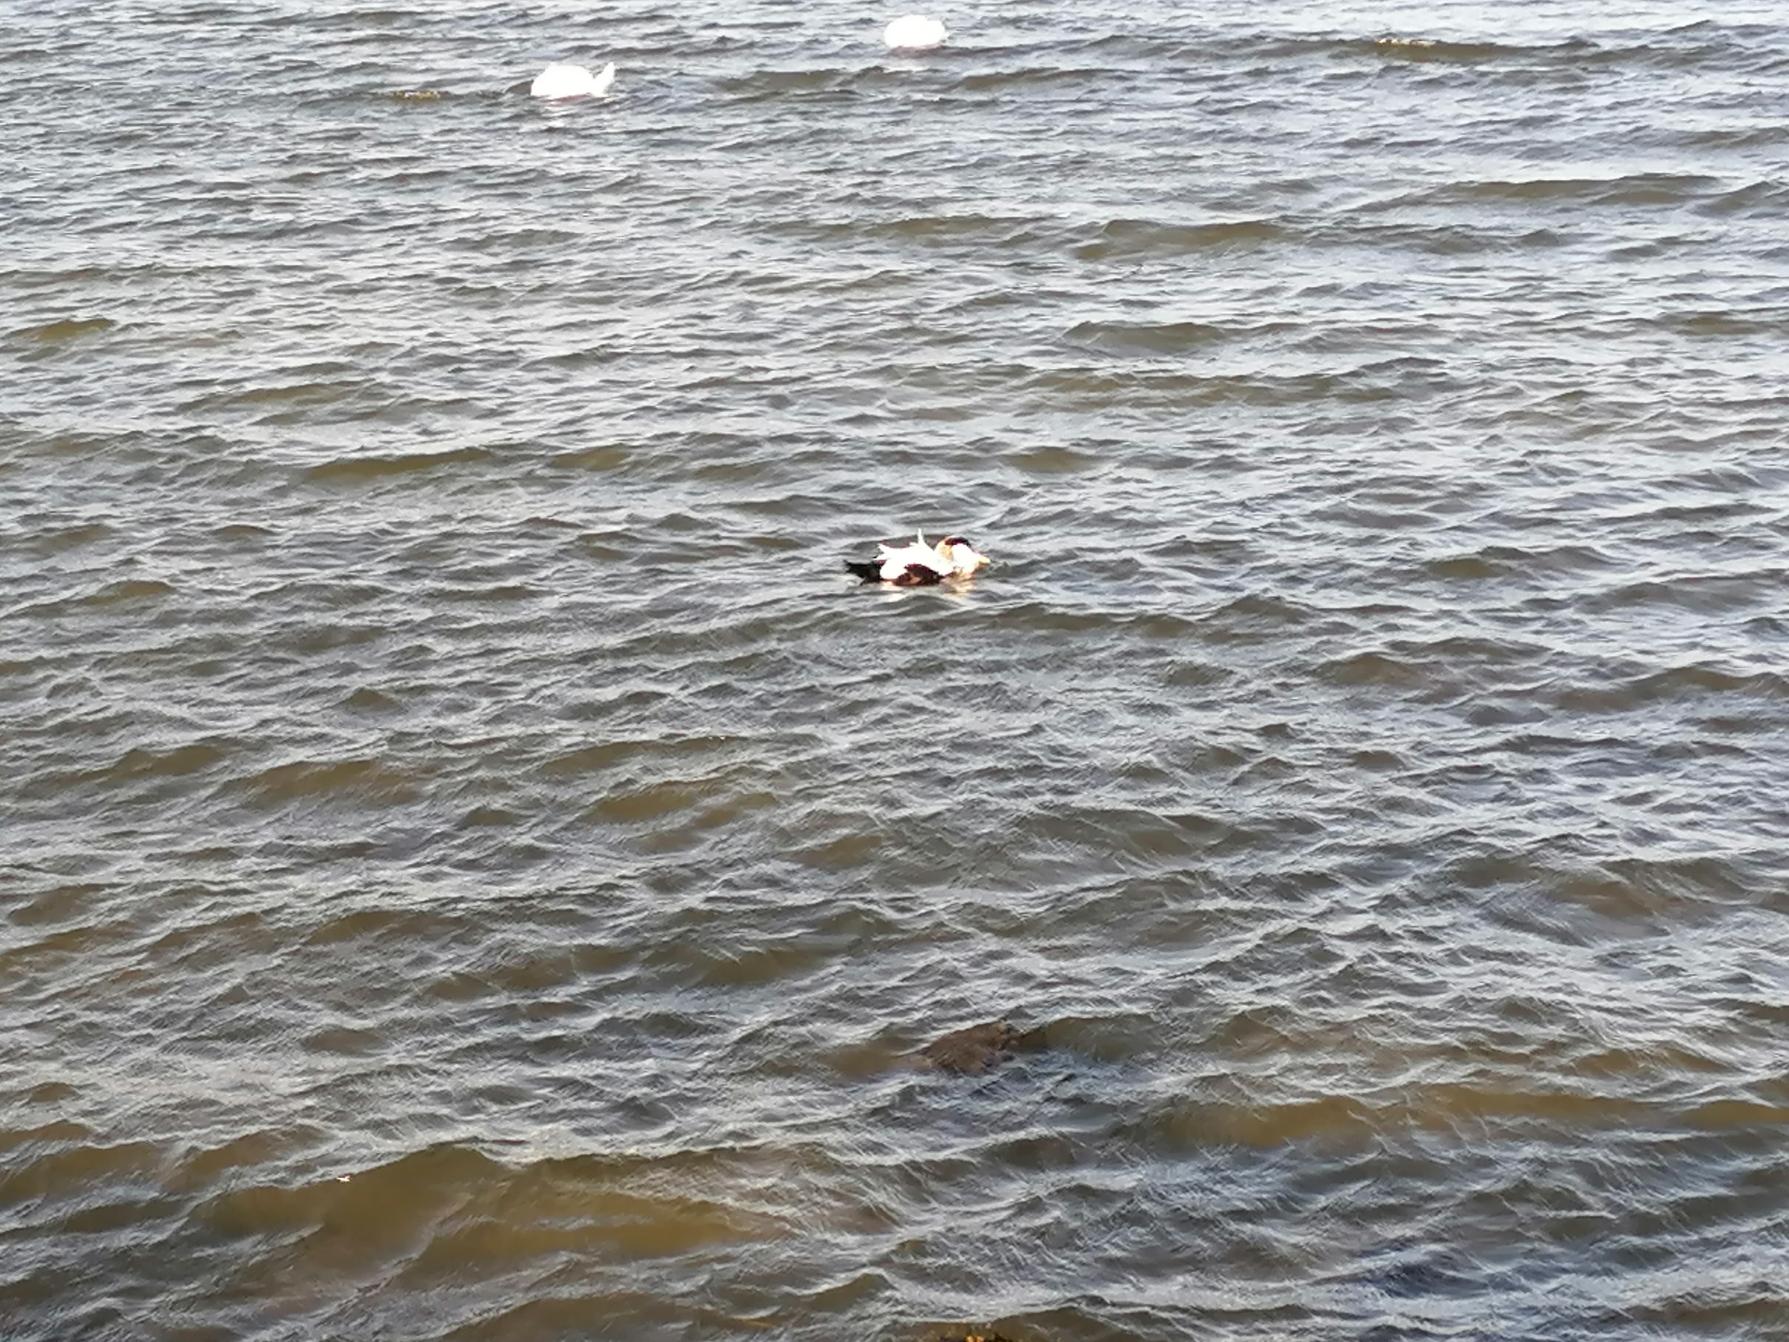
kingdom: Animalia
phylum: Chordata
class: Aves
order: Anseriformes
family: Anatidae
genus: Somateria
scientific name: Somateria mollissima
